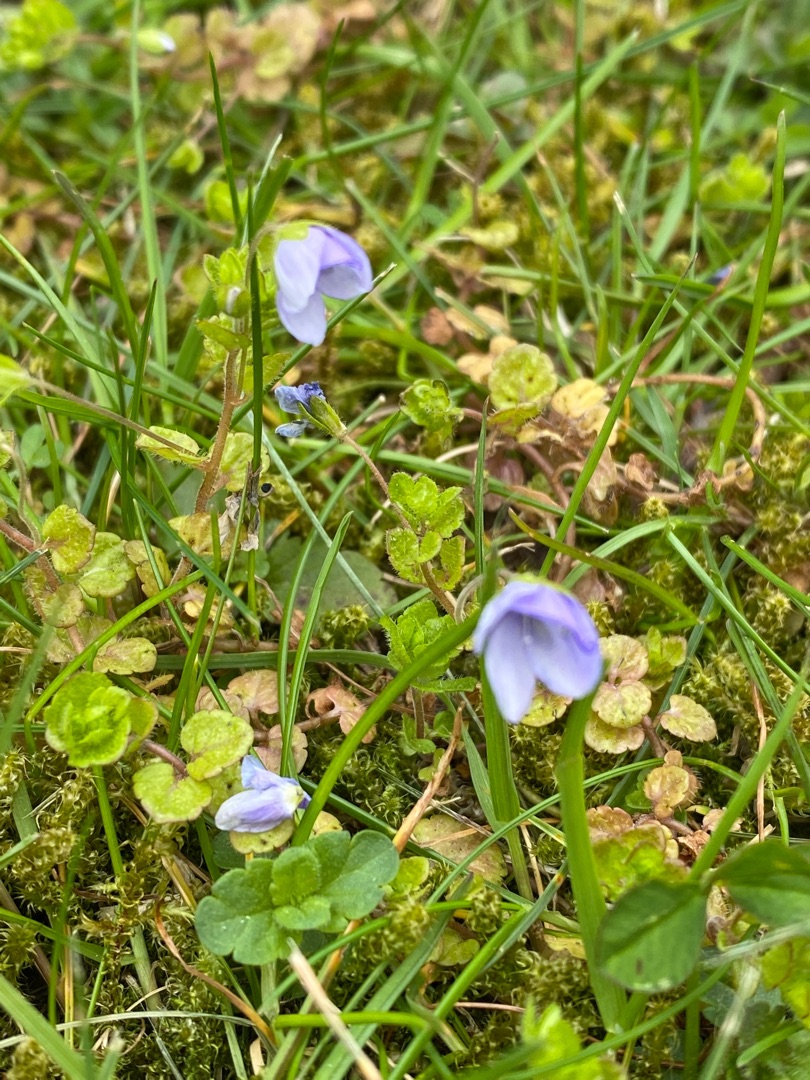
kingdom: Plantae
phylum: Tracheophyta
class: Magnoliopsida
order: Lamiales
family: Plantaginaceae
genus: Veronica
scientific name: Veronica filiformis
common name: Tråd-ærenpris
